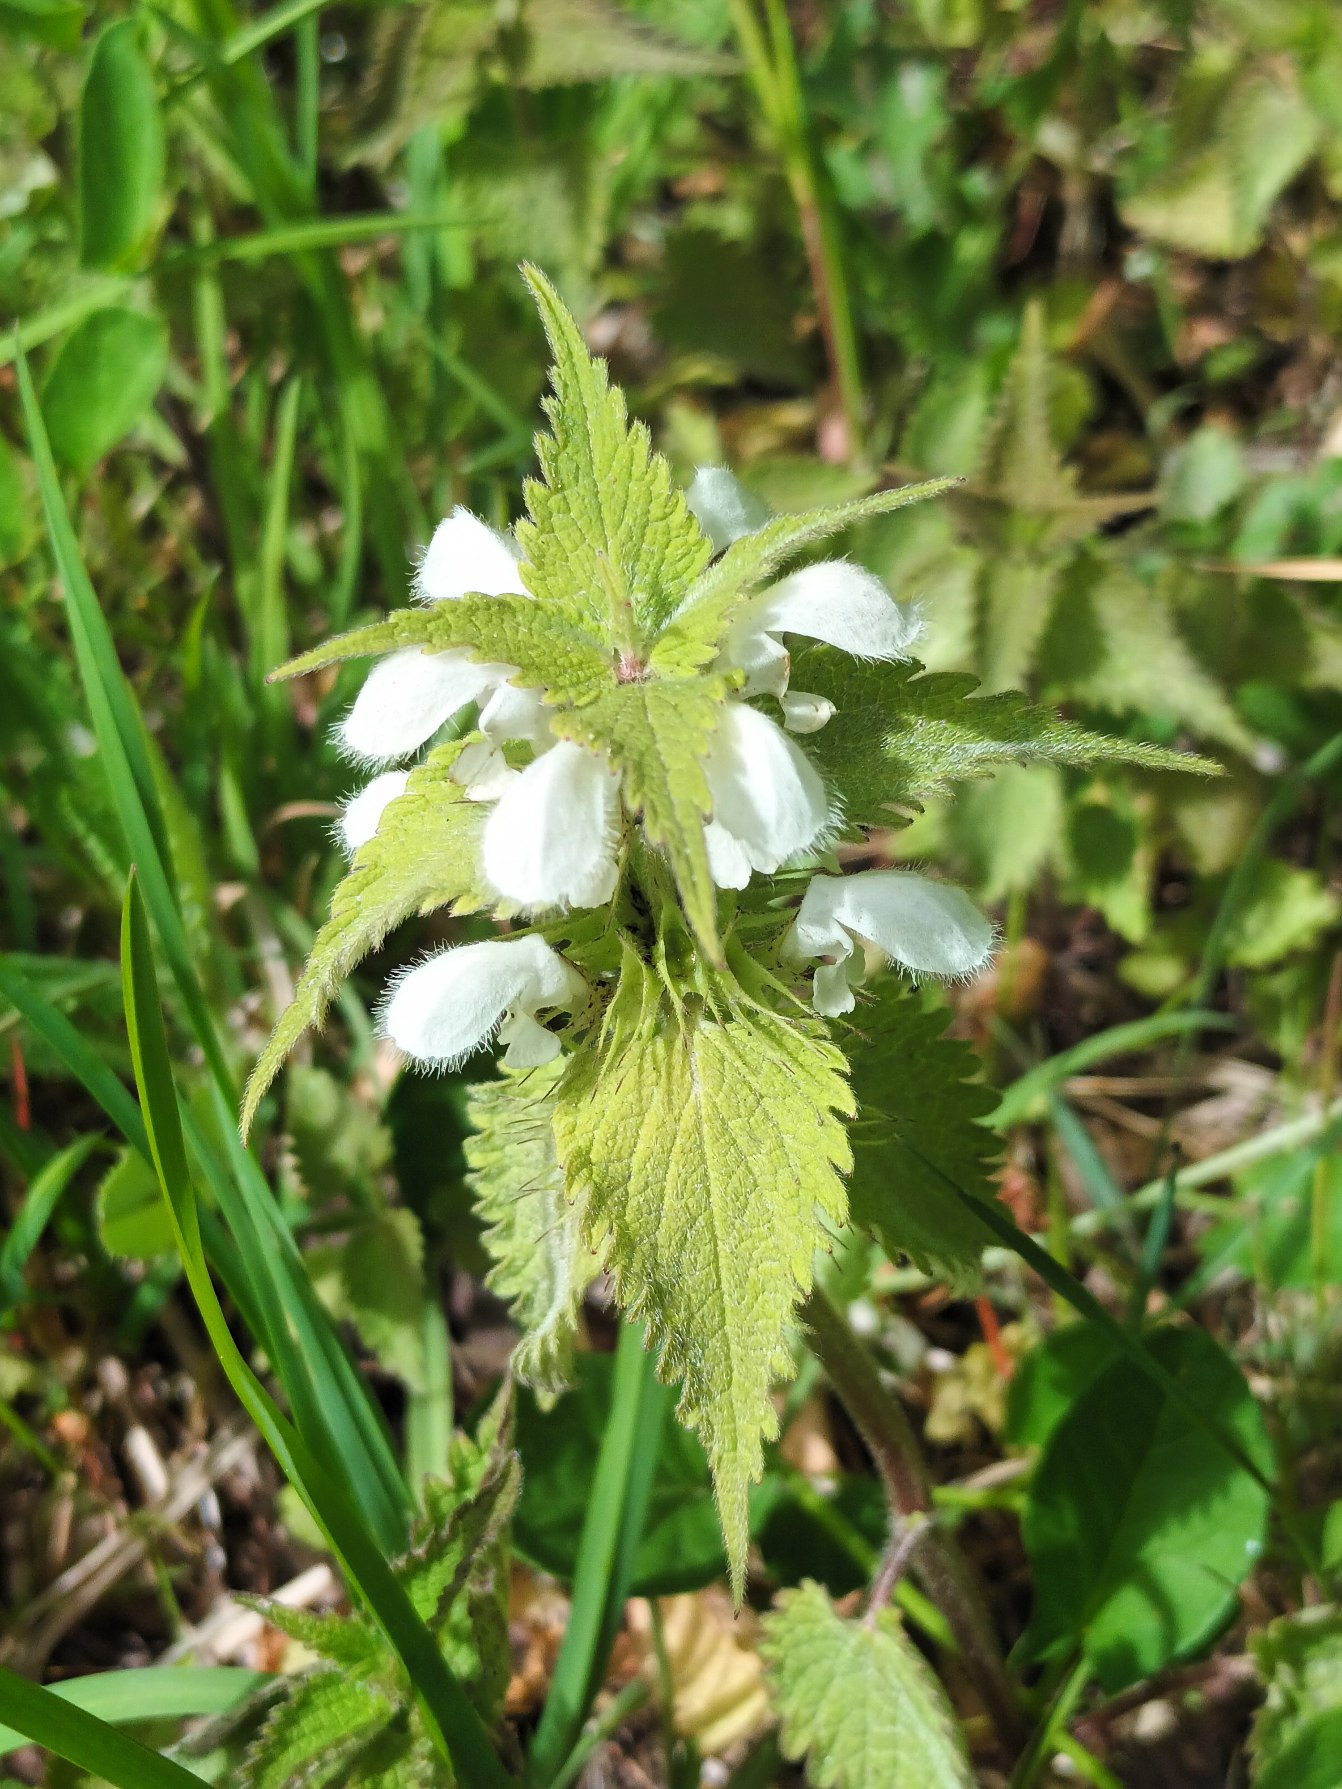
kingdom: Plantae
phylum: Tracheophyta
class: Magnoliopsida
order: Lamiales
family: Lamiaceae
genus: Lamium
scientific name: Lamium album
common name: Døvnælde
